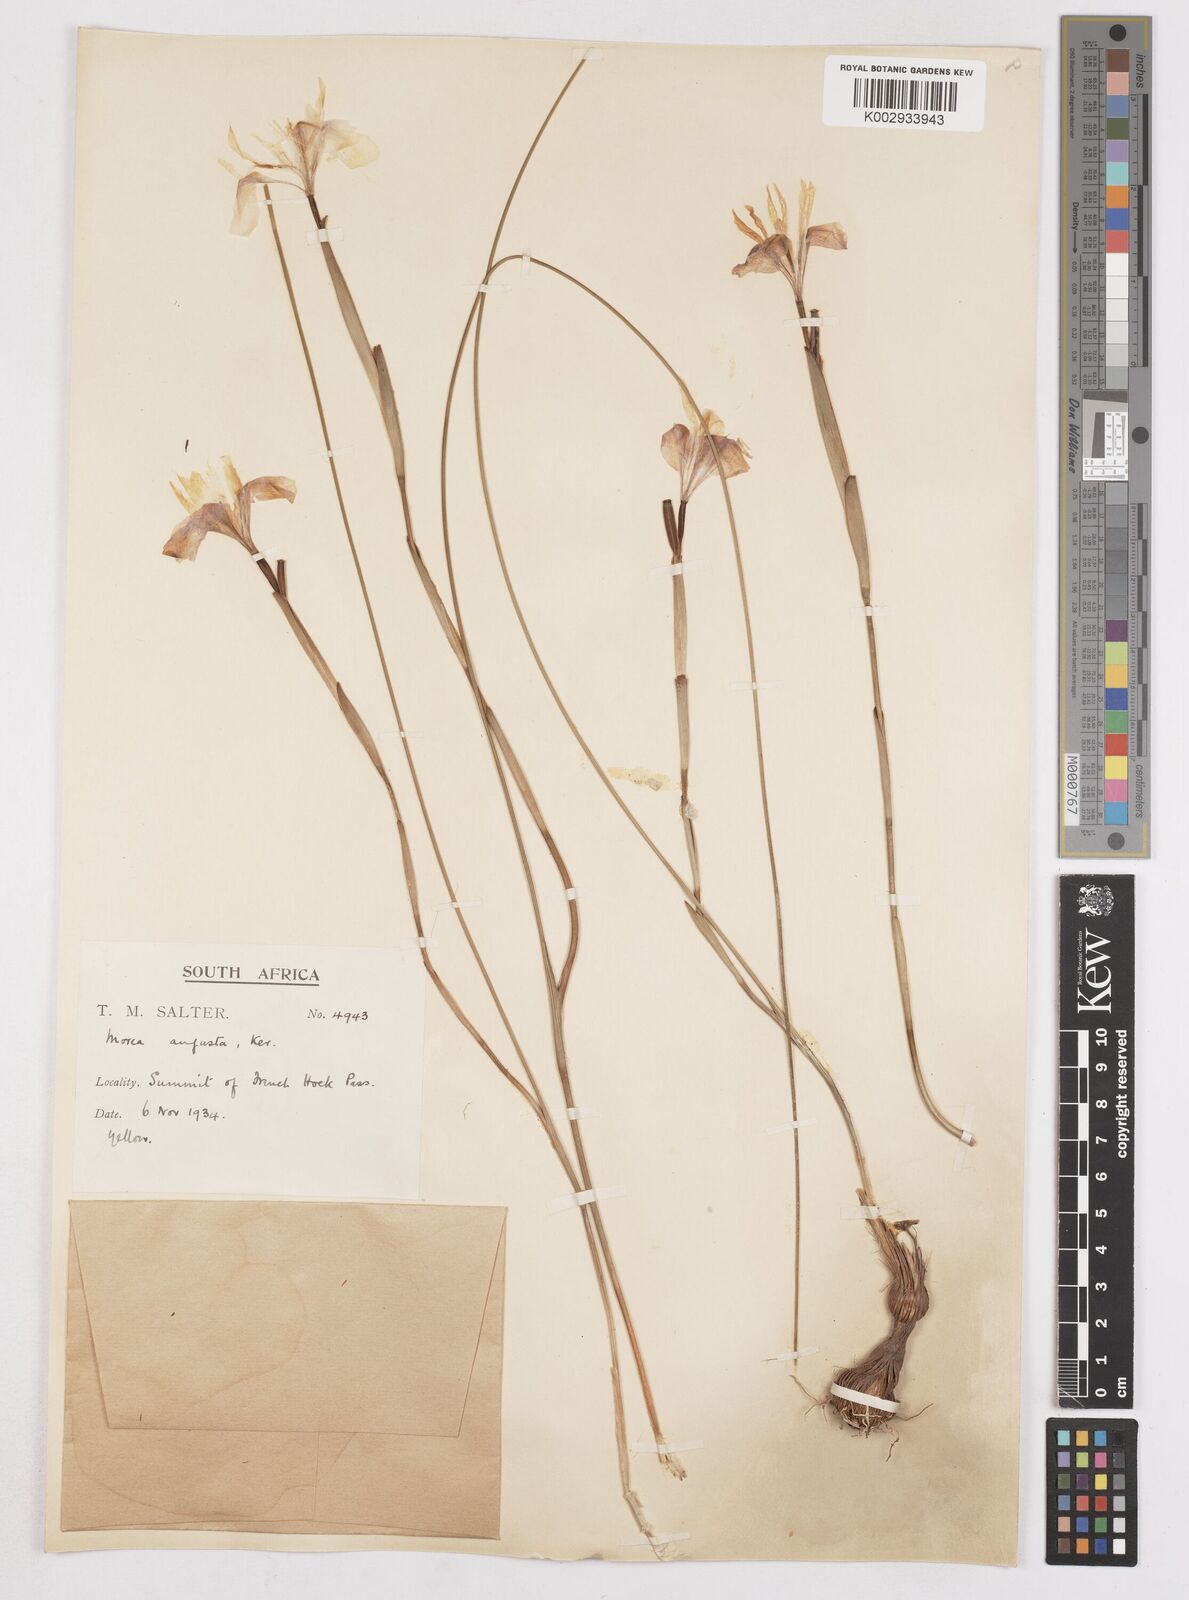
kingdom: Plantae
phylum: Tracheophyta
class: Liliopsida
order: Asparagales
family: Iridaceae
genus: Moraea
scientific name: Moraea angusta
